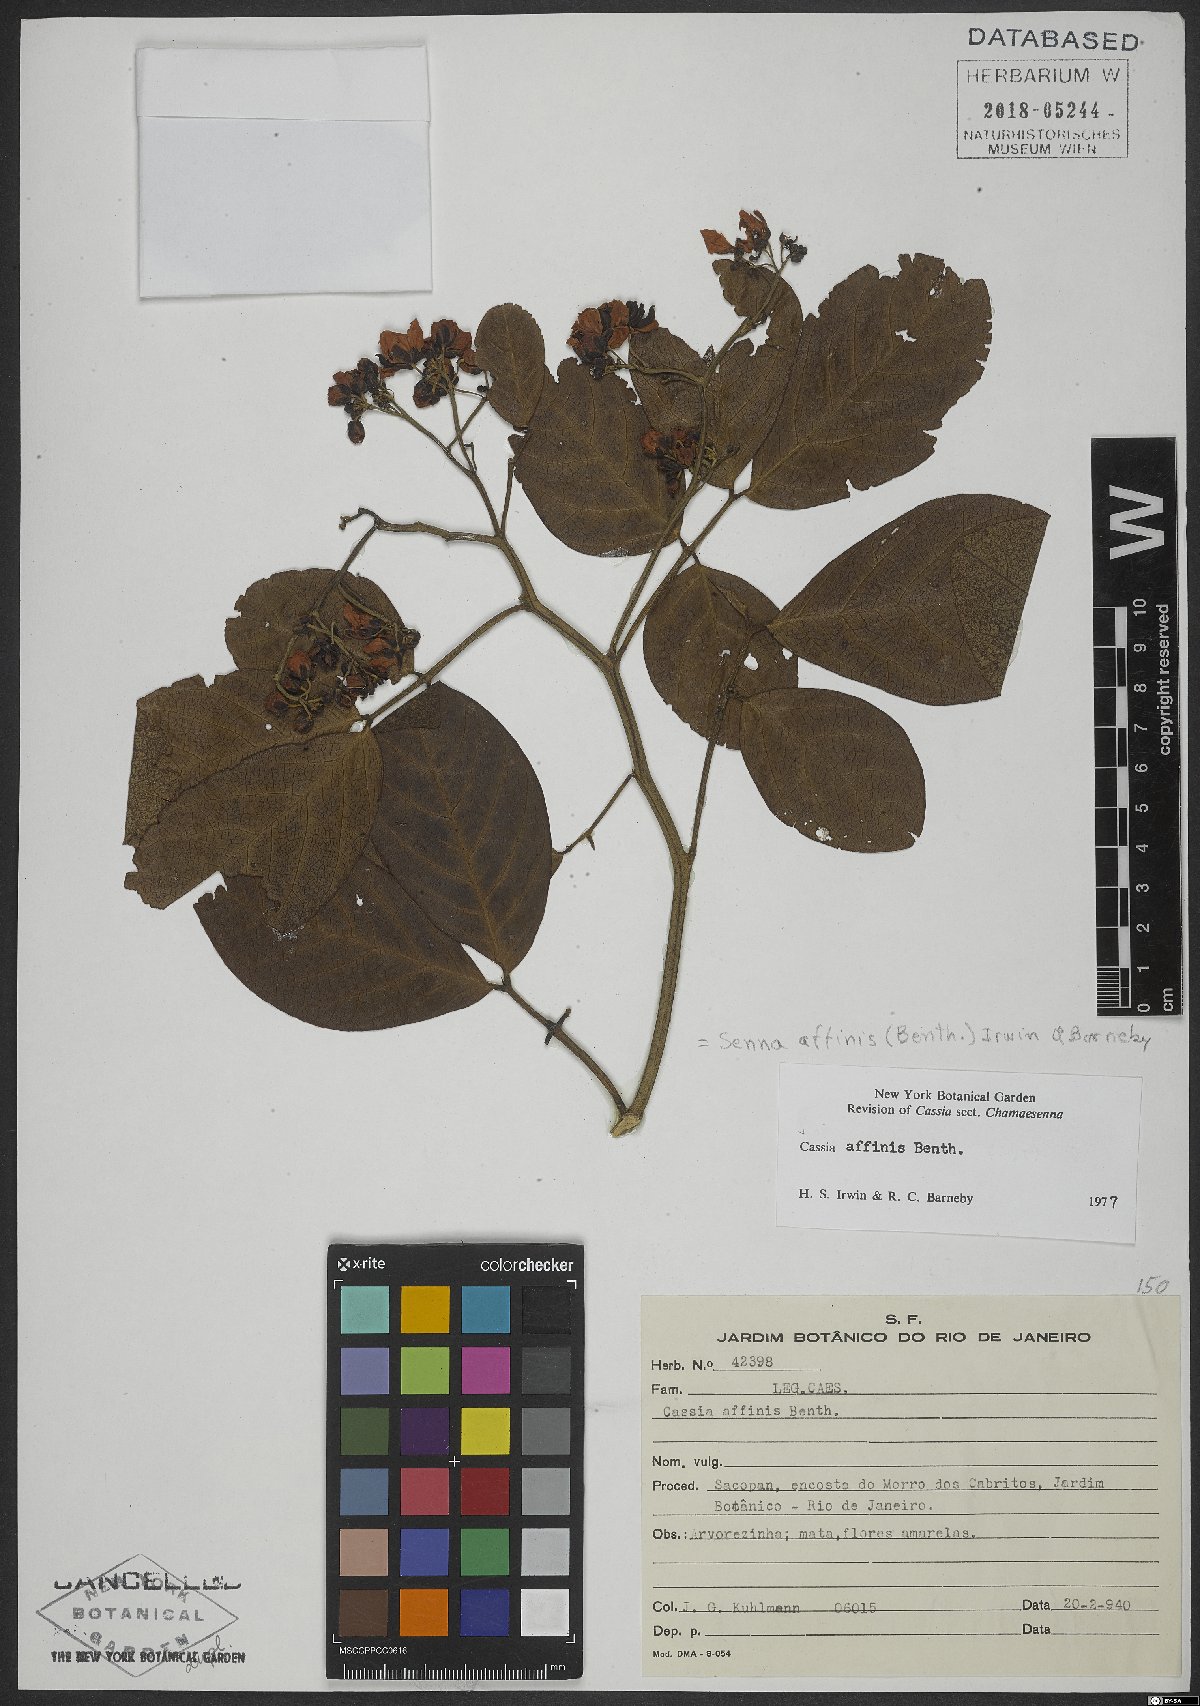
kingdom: Plantae
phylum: Tracheophyta
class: Magnoliopsida
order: Fabales
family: Fabaceae
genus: Senna
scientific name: Senna affinis
